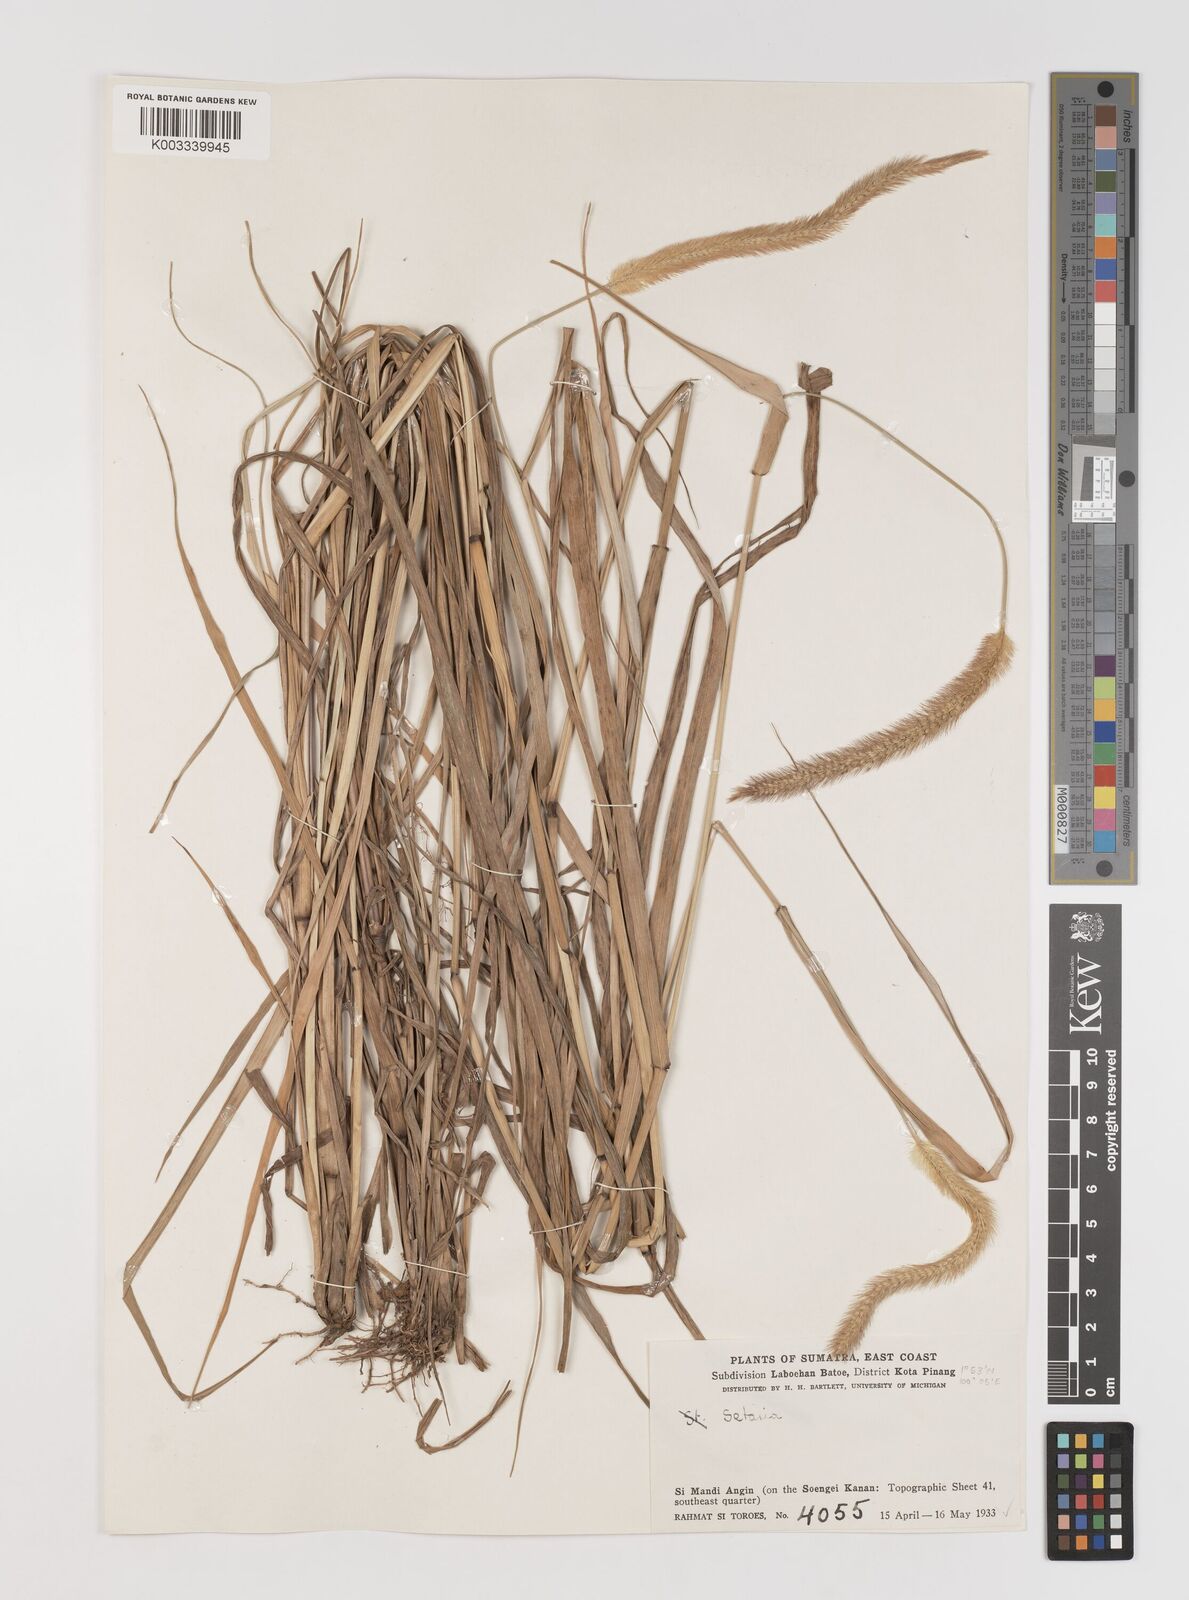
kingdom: Plantae
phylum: Tracheophyta
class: Liliopsida
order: Poales
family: Poaceae
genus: Setaria
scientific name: Setaria parviflora
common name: Knotroot bristle-grass
